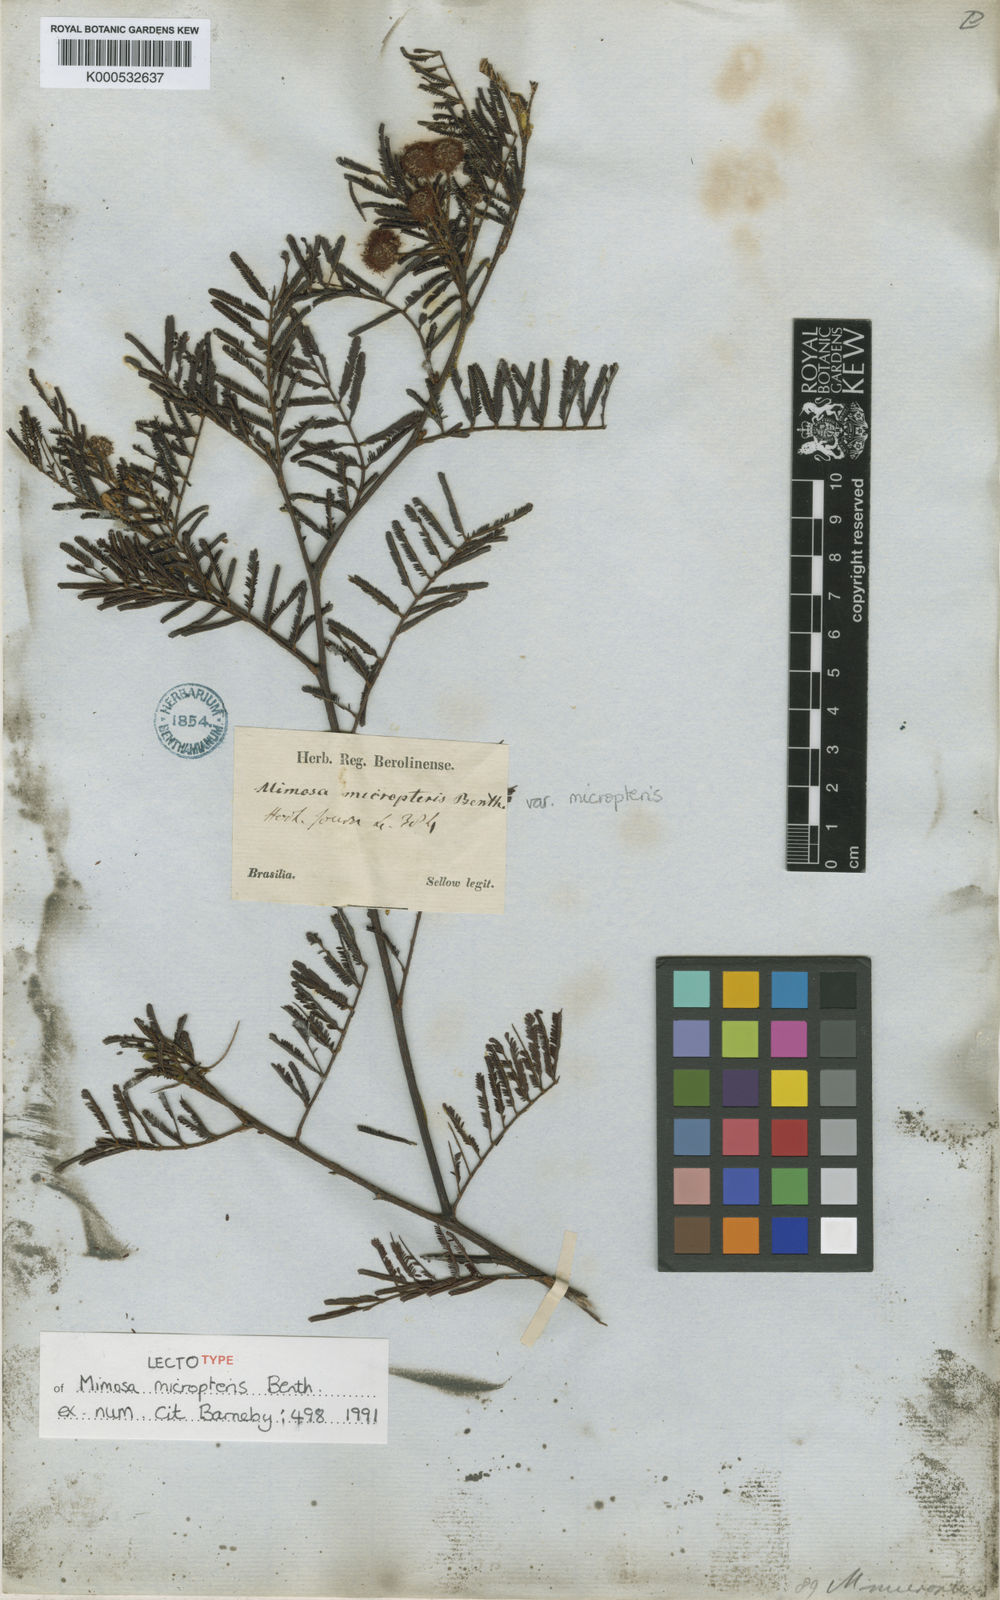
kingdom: Plantae
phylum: Tracheophyta
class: Magnoliopsida
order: Fabales
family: Fabaceae
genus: Mimosa
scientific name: Mimosa micropteris
